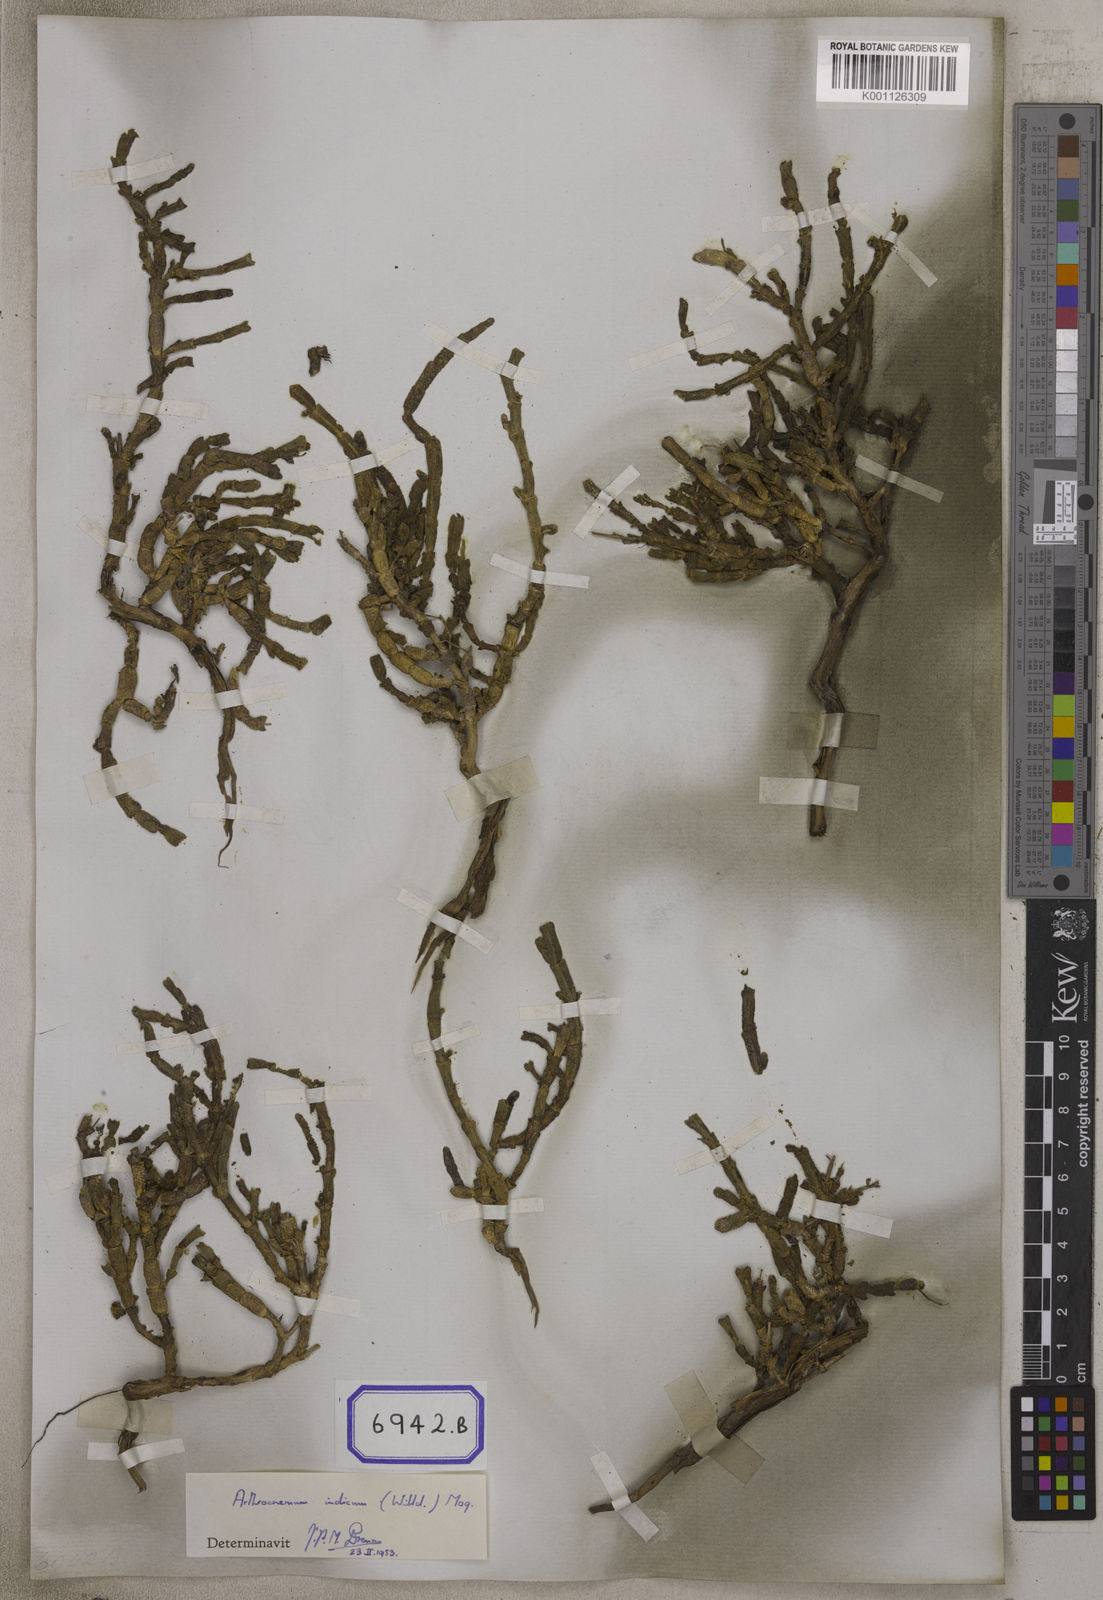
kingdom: Plantae
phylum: Tracheophyta
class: Magnoliopsida
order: Caryophyllales
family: Amaranthaceae
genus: Tecticornia
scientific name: Tecticornia indica
